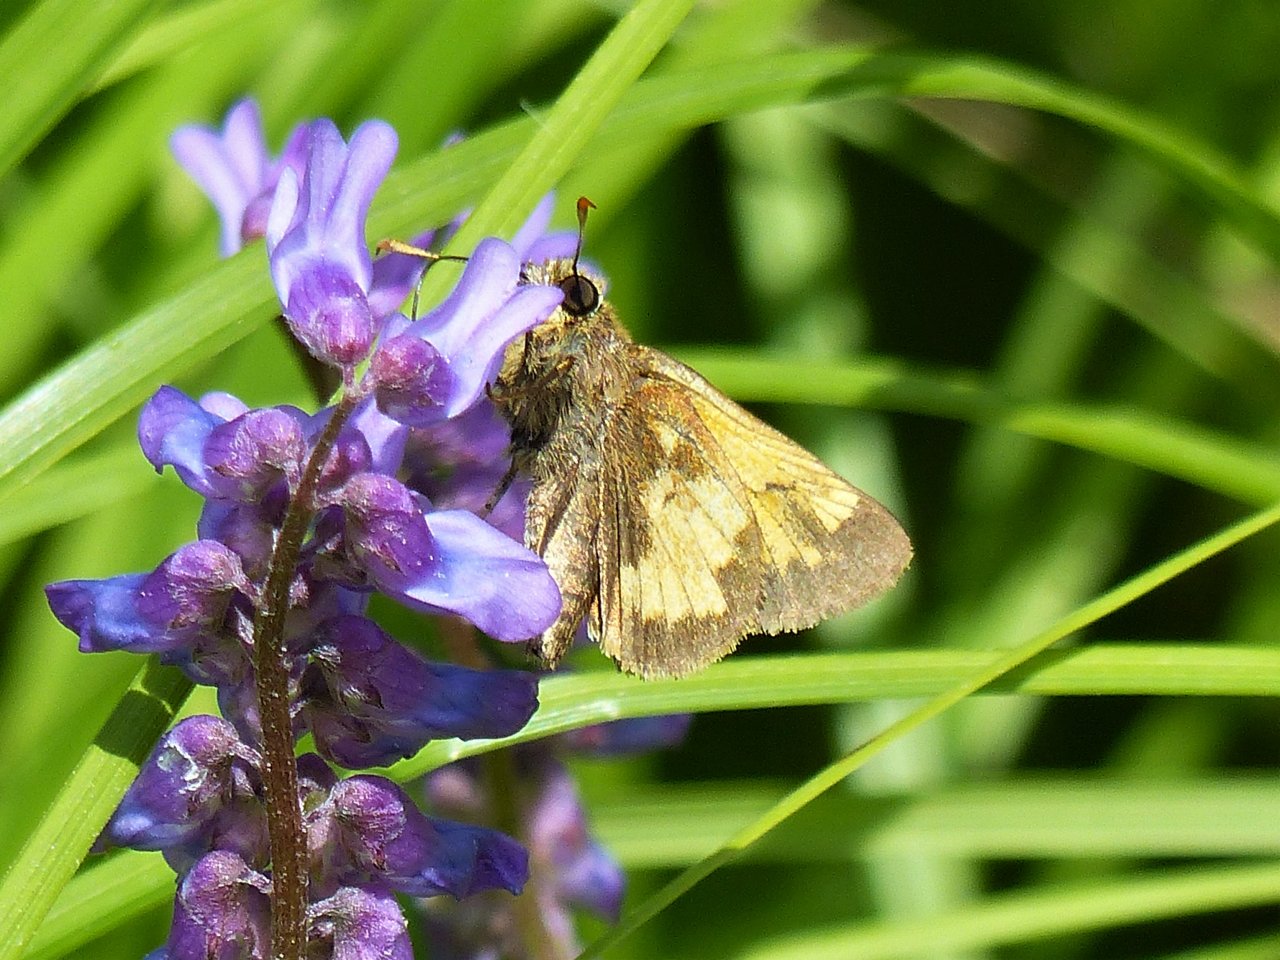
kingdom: Animalia
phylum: Arthropoda
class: Insecta
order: Lepidoptera
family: Hesperiidae
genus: Lon
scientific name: Lon hobomok
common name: Hobomok Skipper
